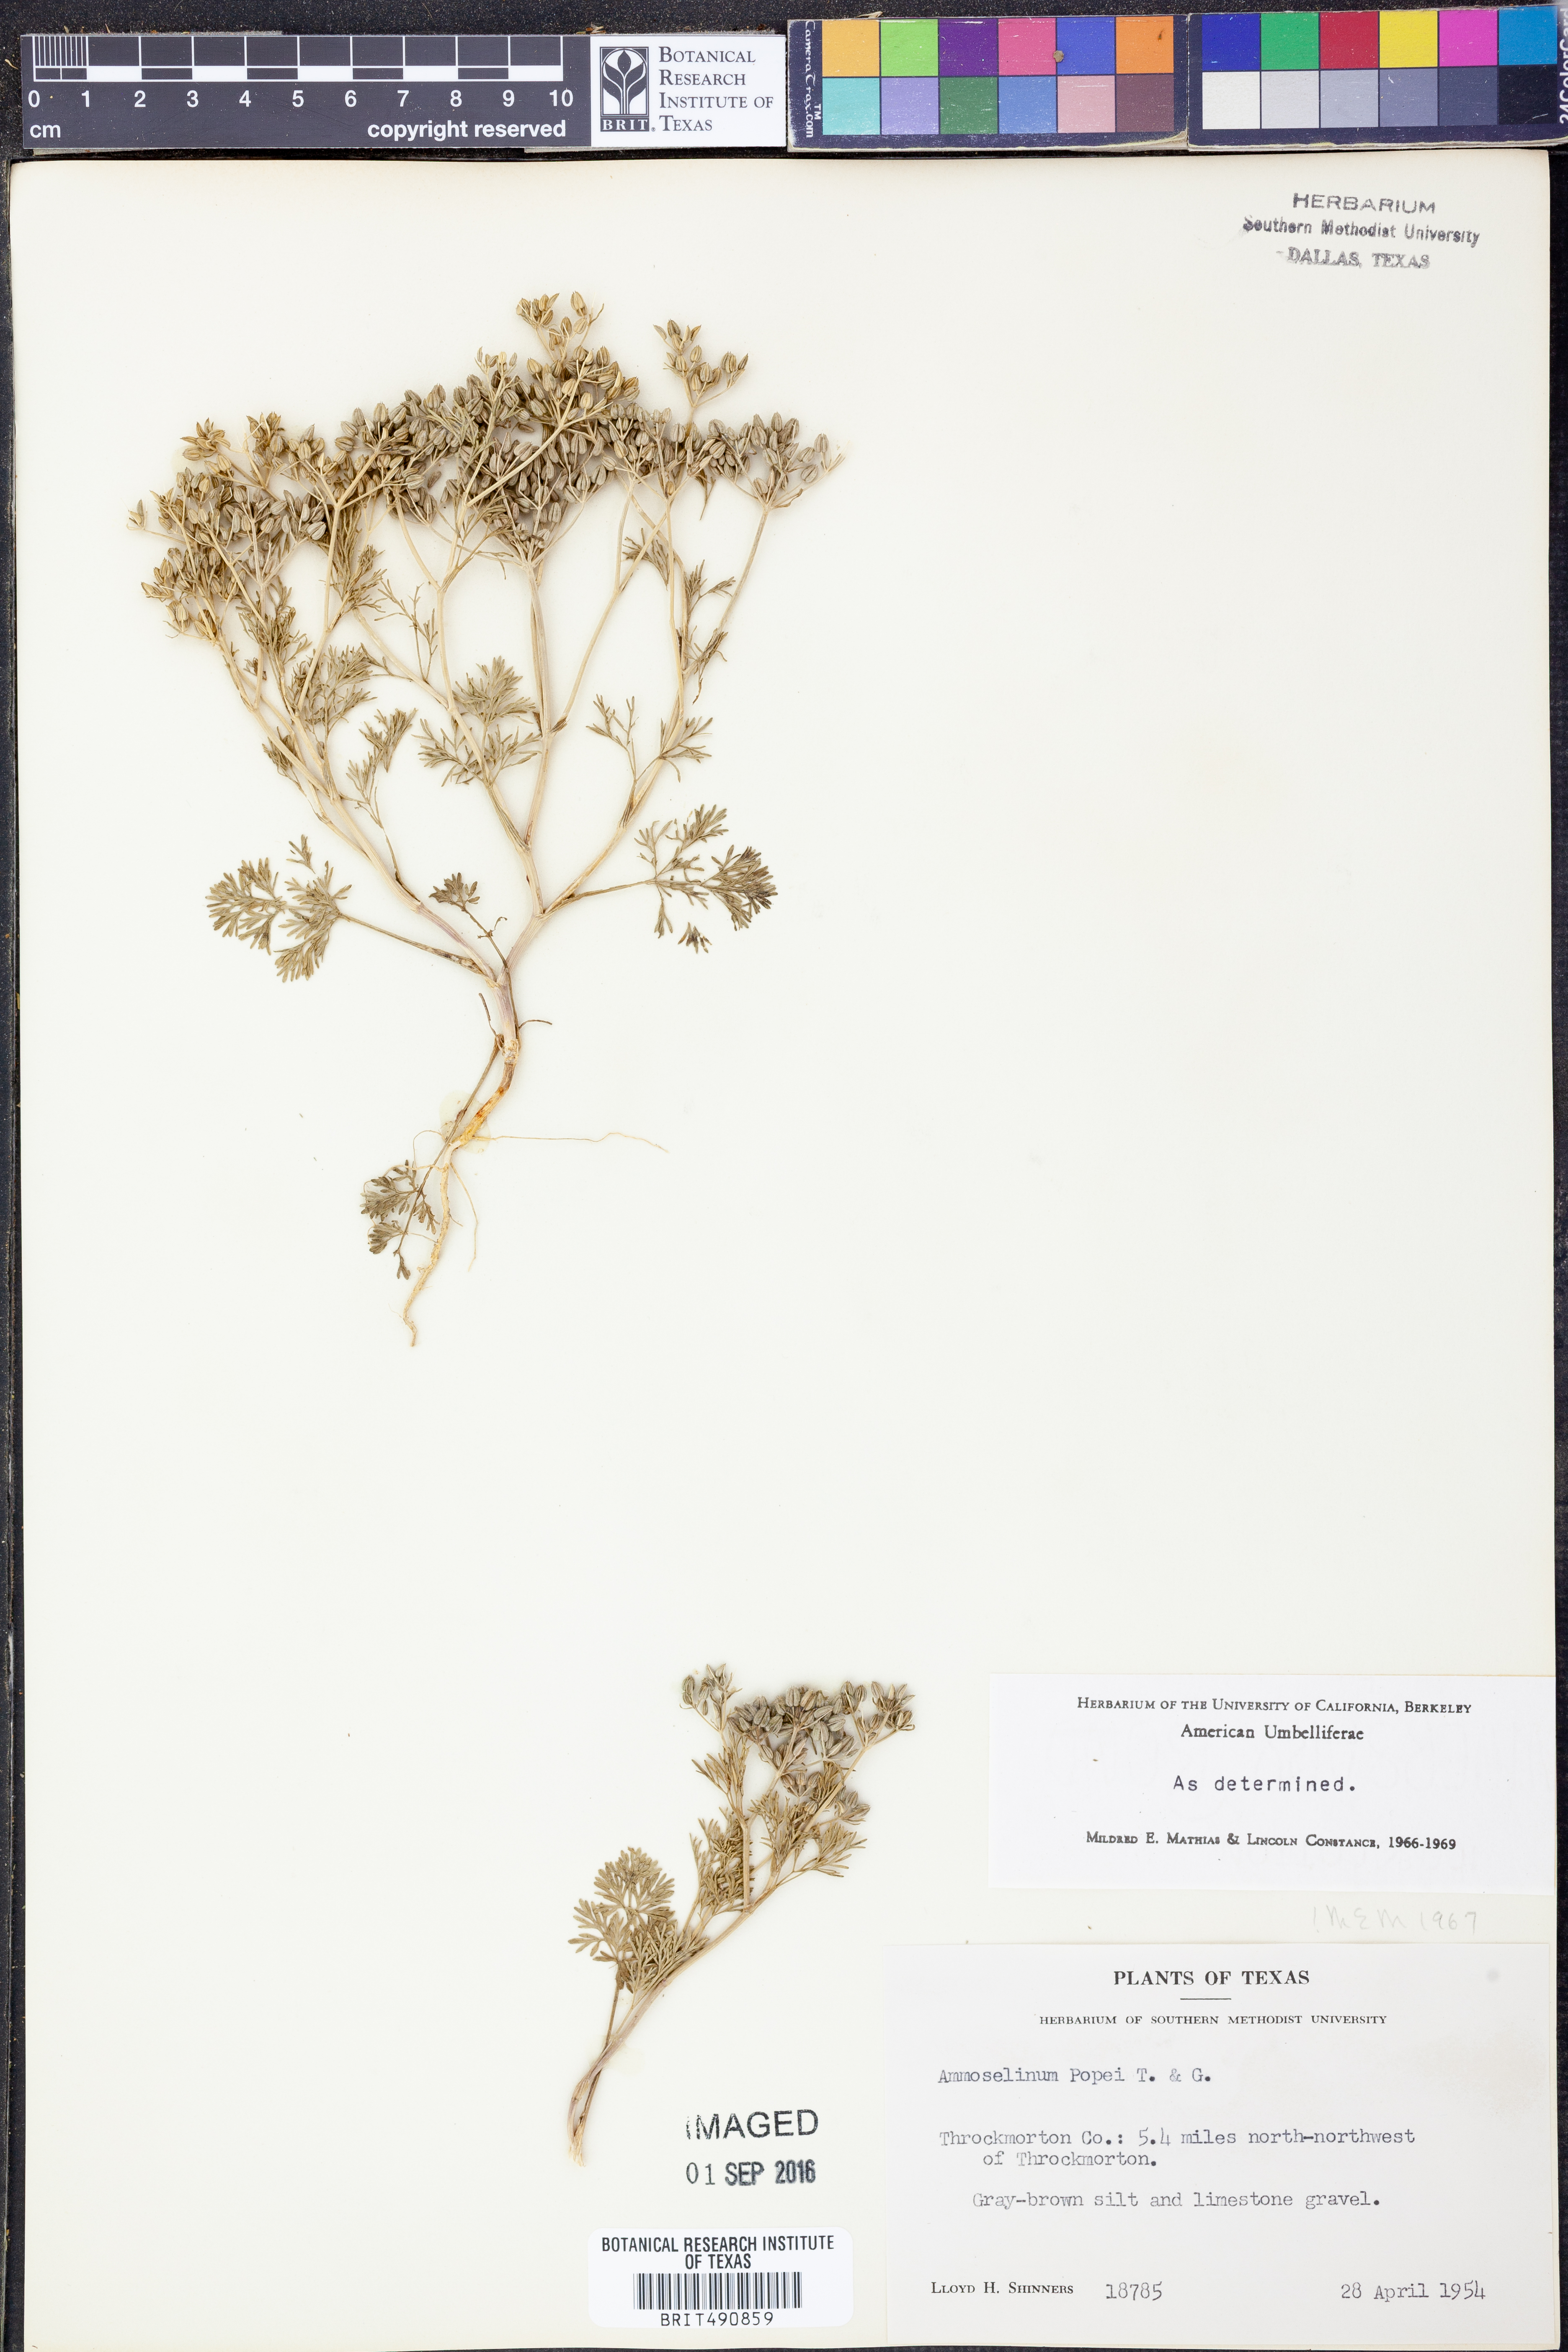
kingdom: Plantae
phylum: Tracheophyta
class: Magnoliopsida
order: Apiales
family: Apiaceae
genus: Ammoselinum
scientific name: Ammoselinum popei
